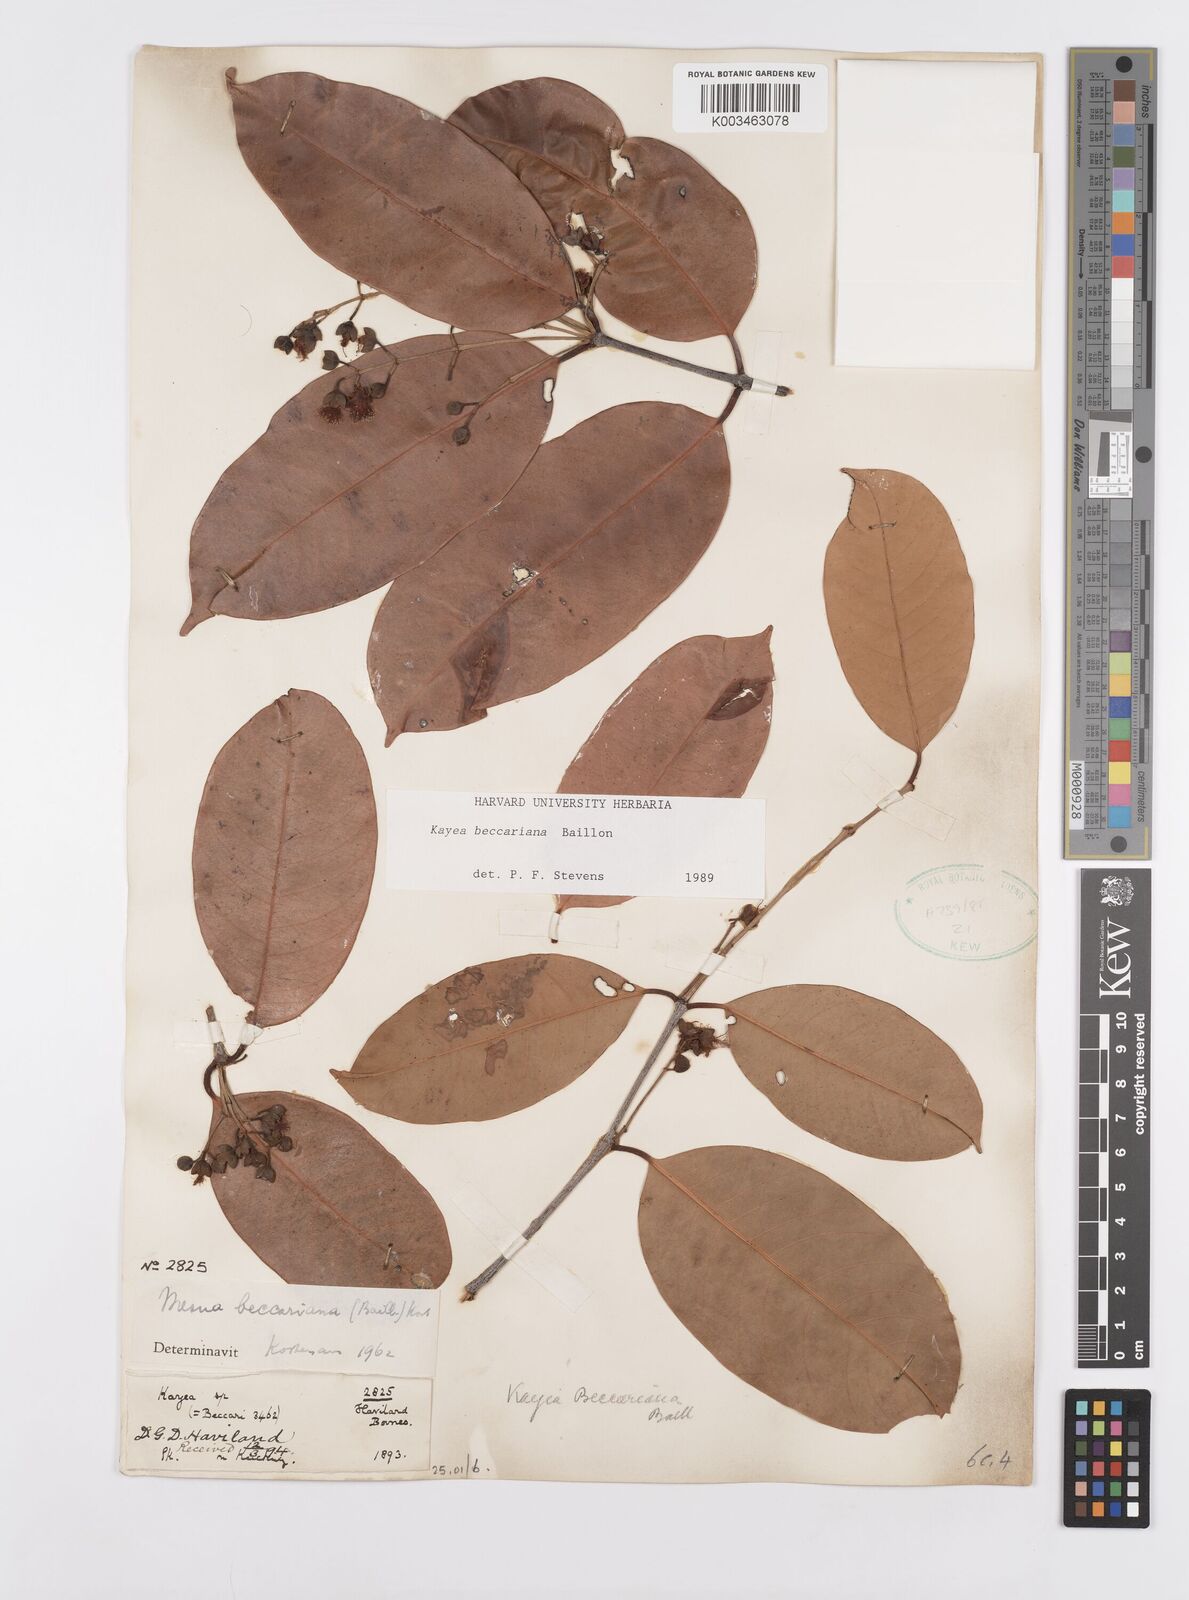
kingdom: Plantae
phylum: Tracheophyta
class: Magnoliopsida
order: Malpighiales
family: Calophyllaceae
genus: Kayea
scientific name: Kayea beccariana
